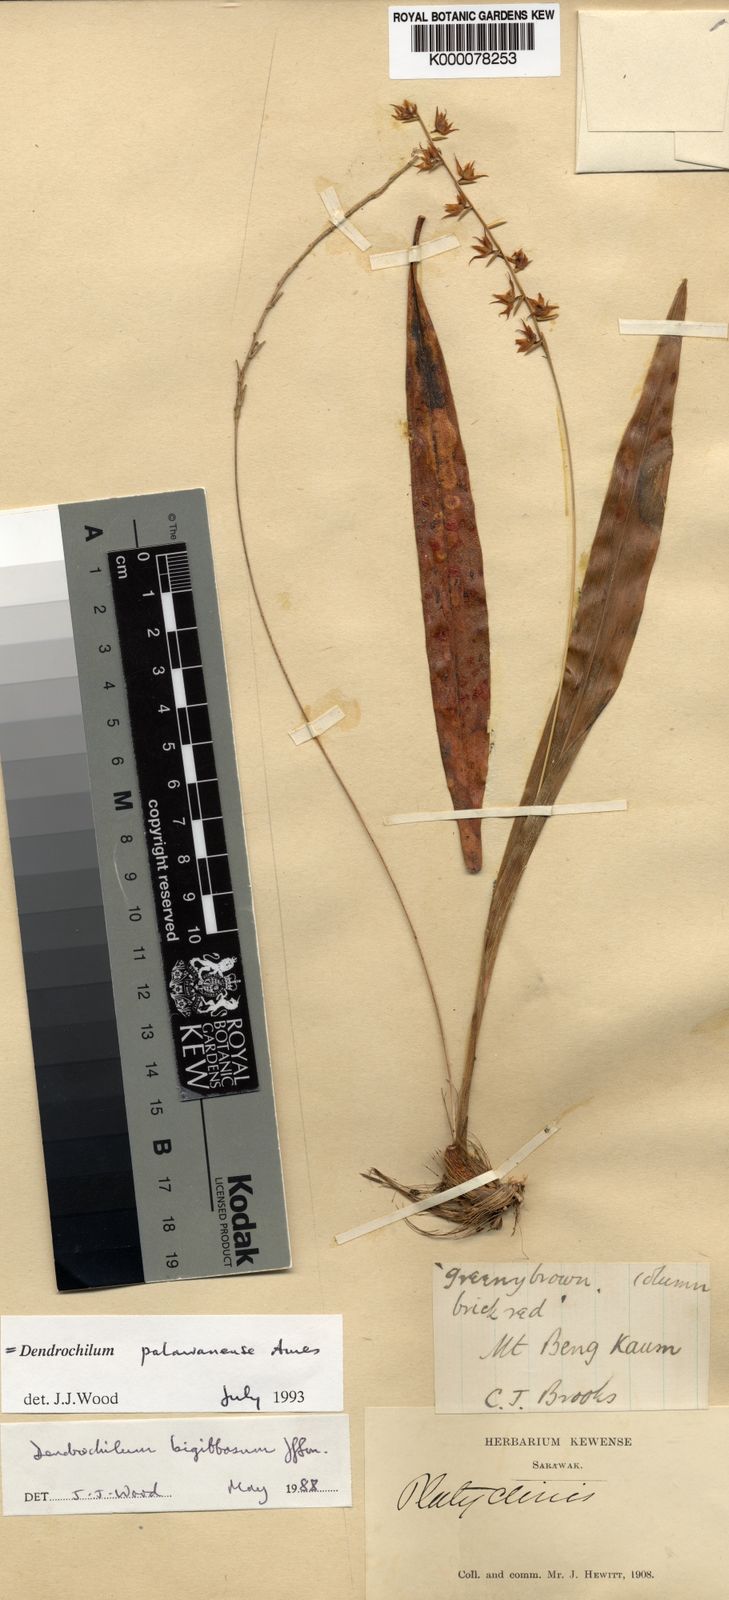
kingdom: Plantae
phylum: Tracheophyta
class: Liliopsida
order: Asparagales
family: Orchidaceae
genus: Coelogyne
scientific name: Coelogyne bigibbosa
